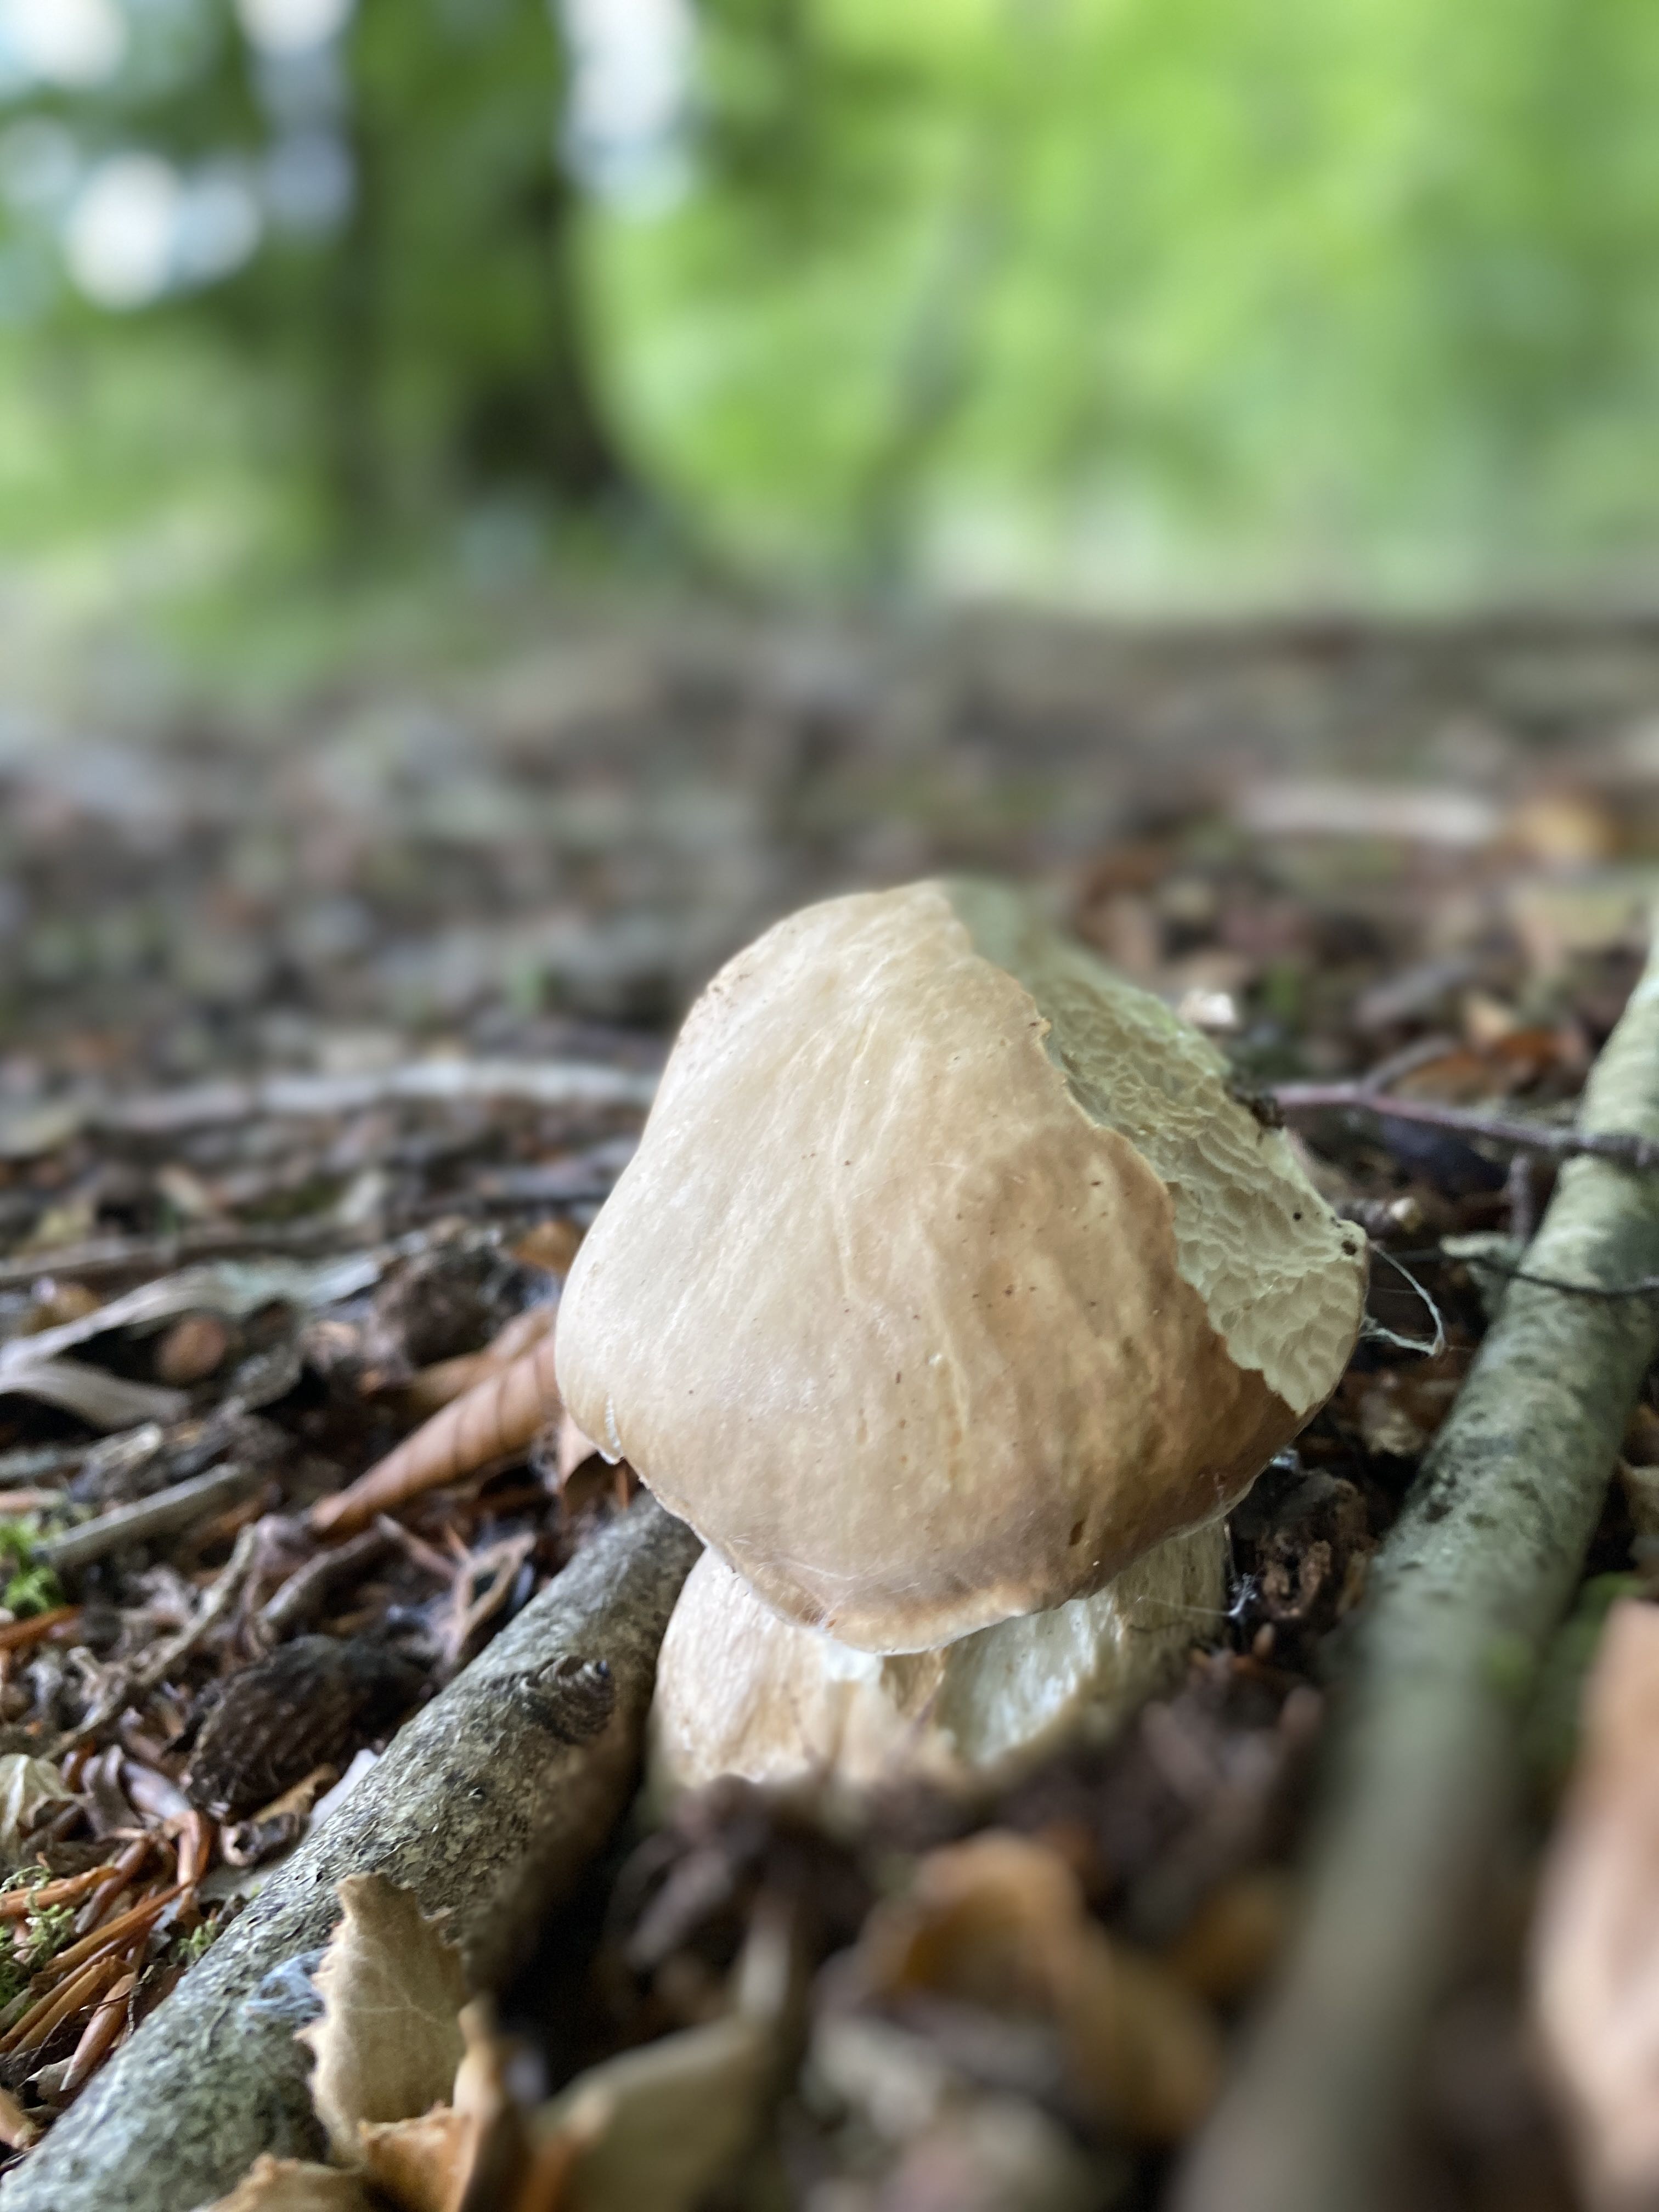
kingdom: Fungi
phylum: Basidiomycota
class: Agaricomycetes
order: Boletales
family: Boletaceae
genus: Boletus
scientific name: Boletus reticulatus
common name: sommer-rørhat
